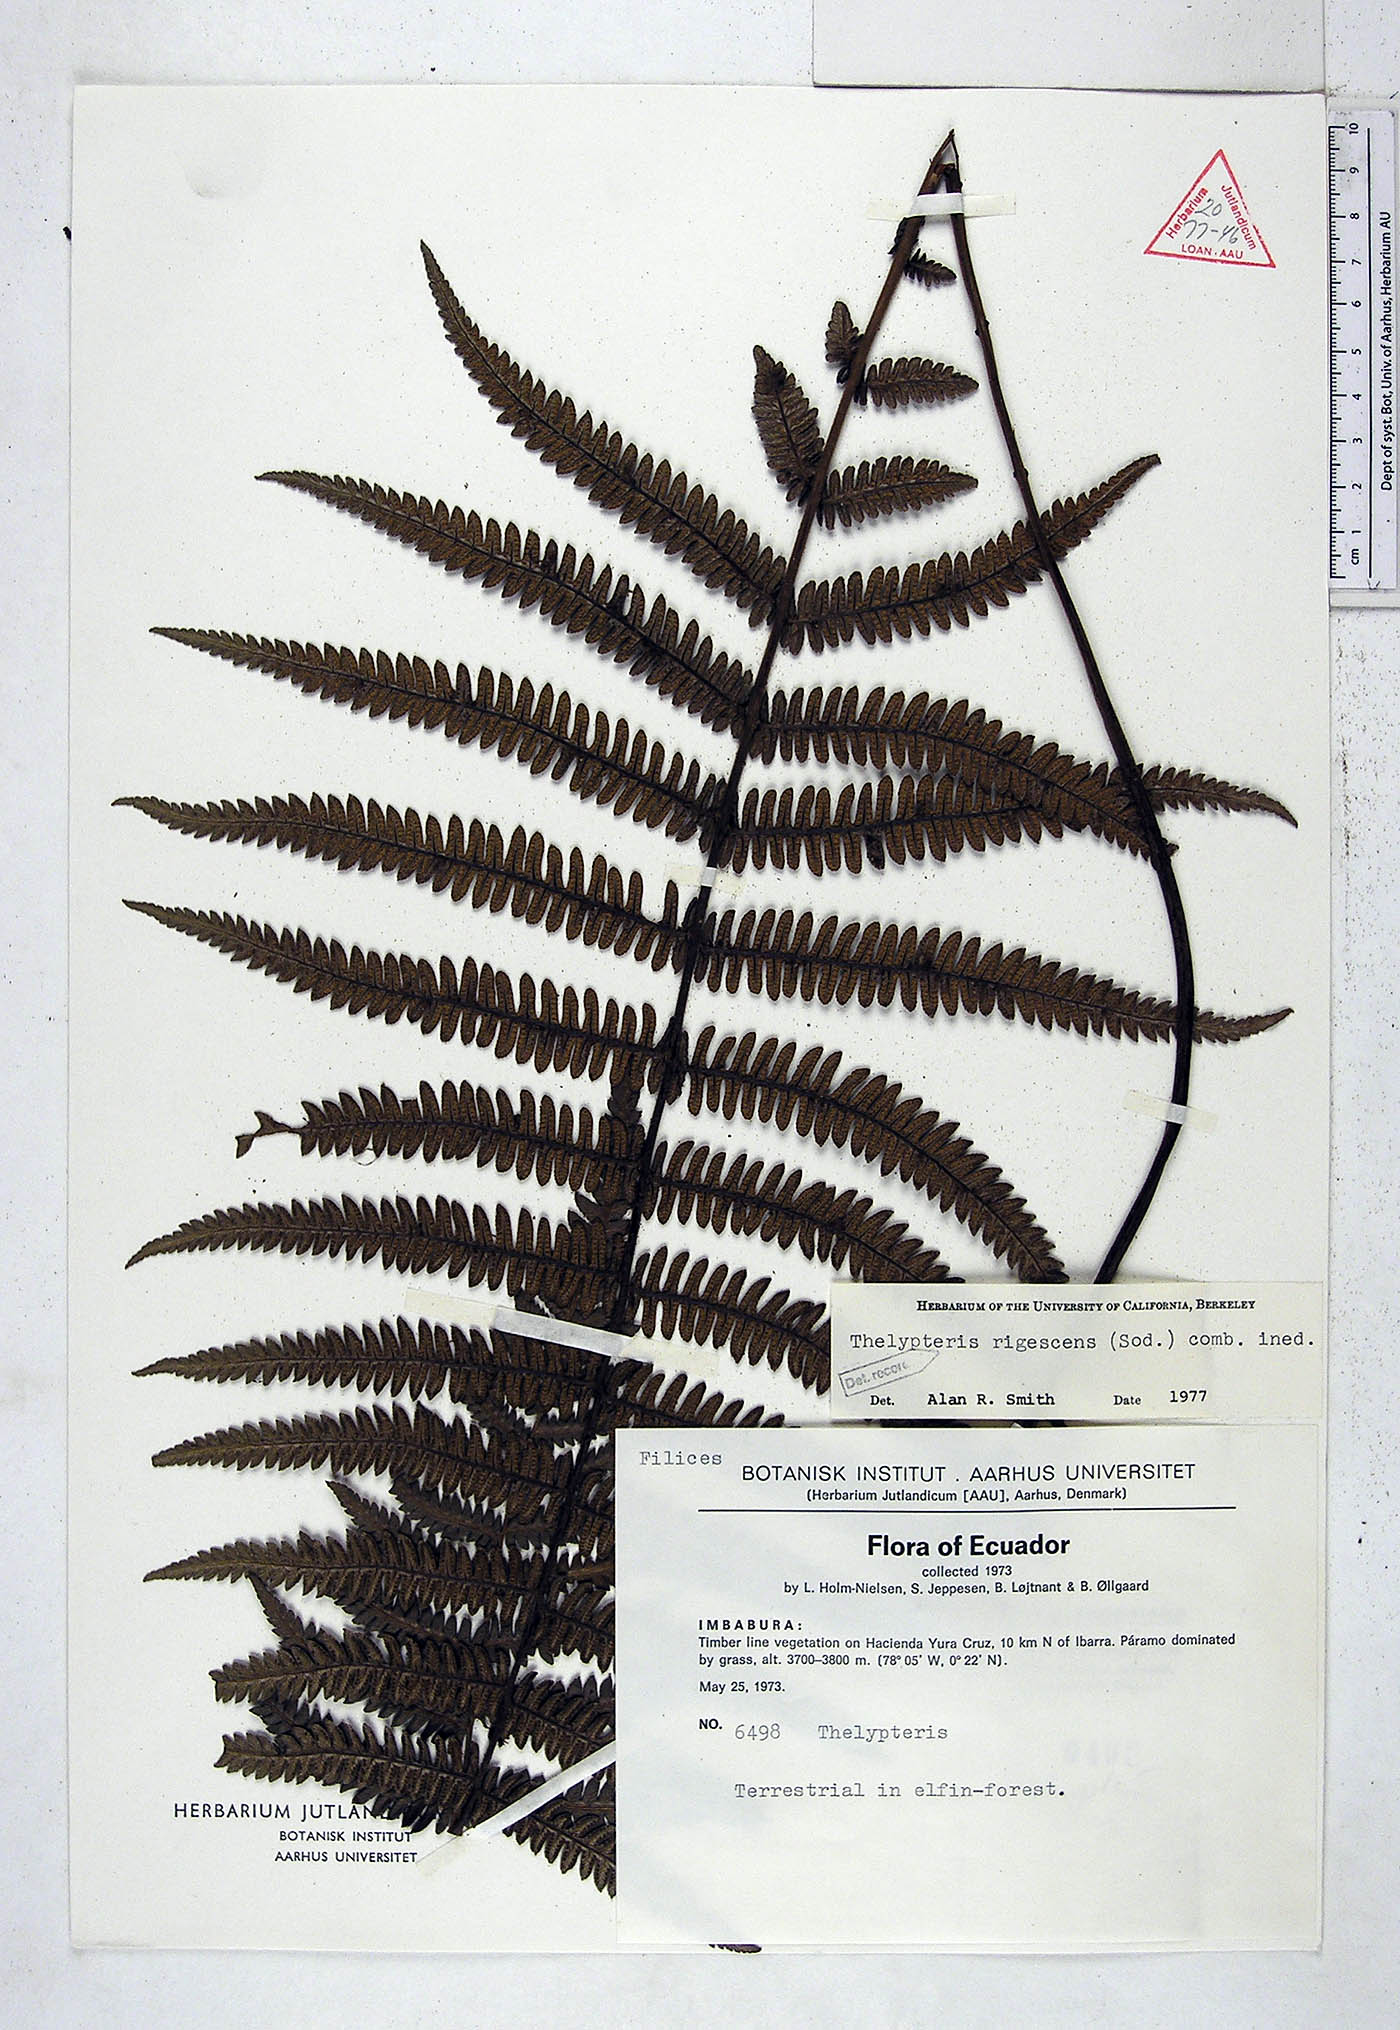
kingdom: Plantae
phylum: Tracheophyta
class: Polypodiopsida
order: Polypodiales
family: Thelypteridaceae
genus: Amauropelta
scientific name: Amauropelta rigescens
